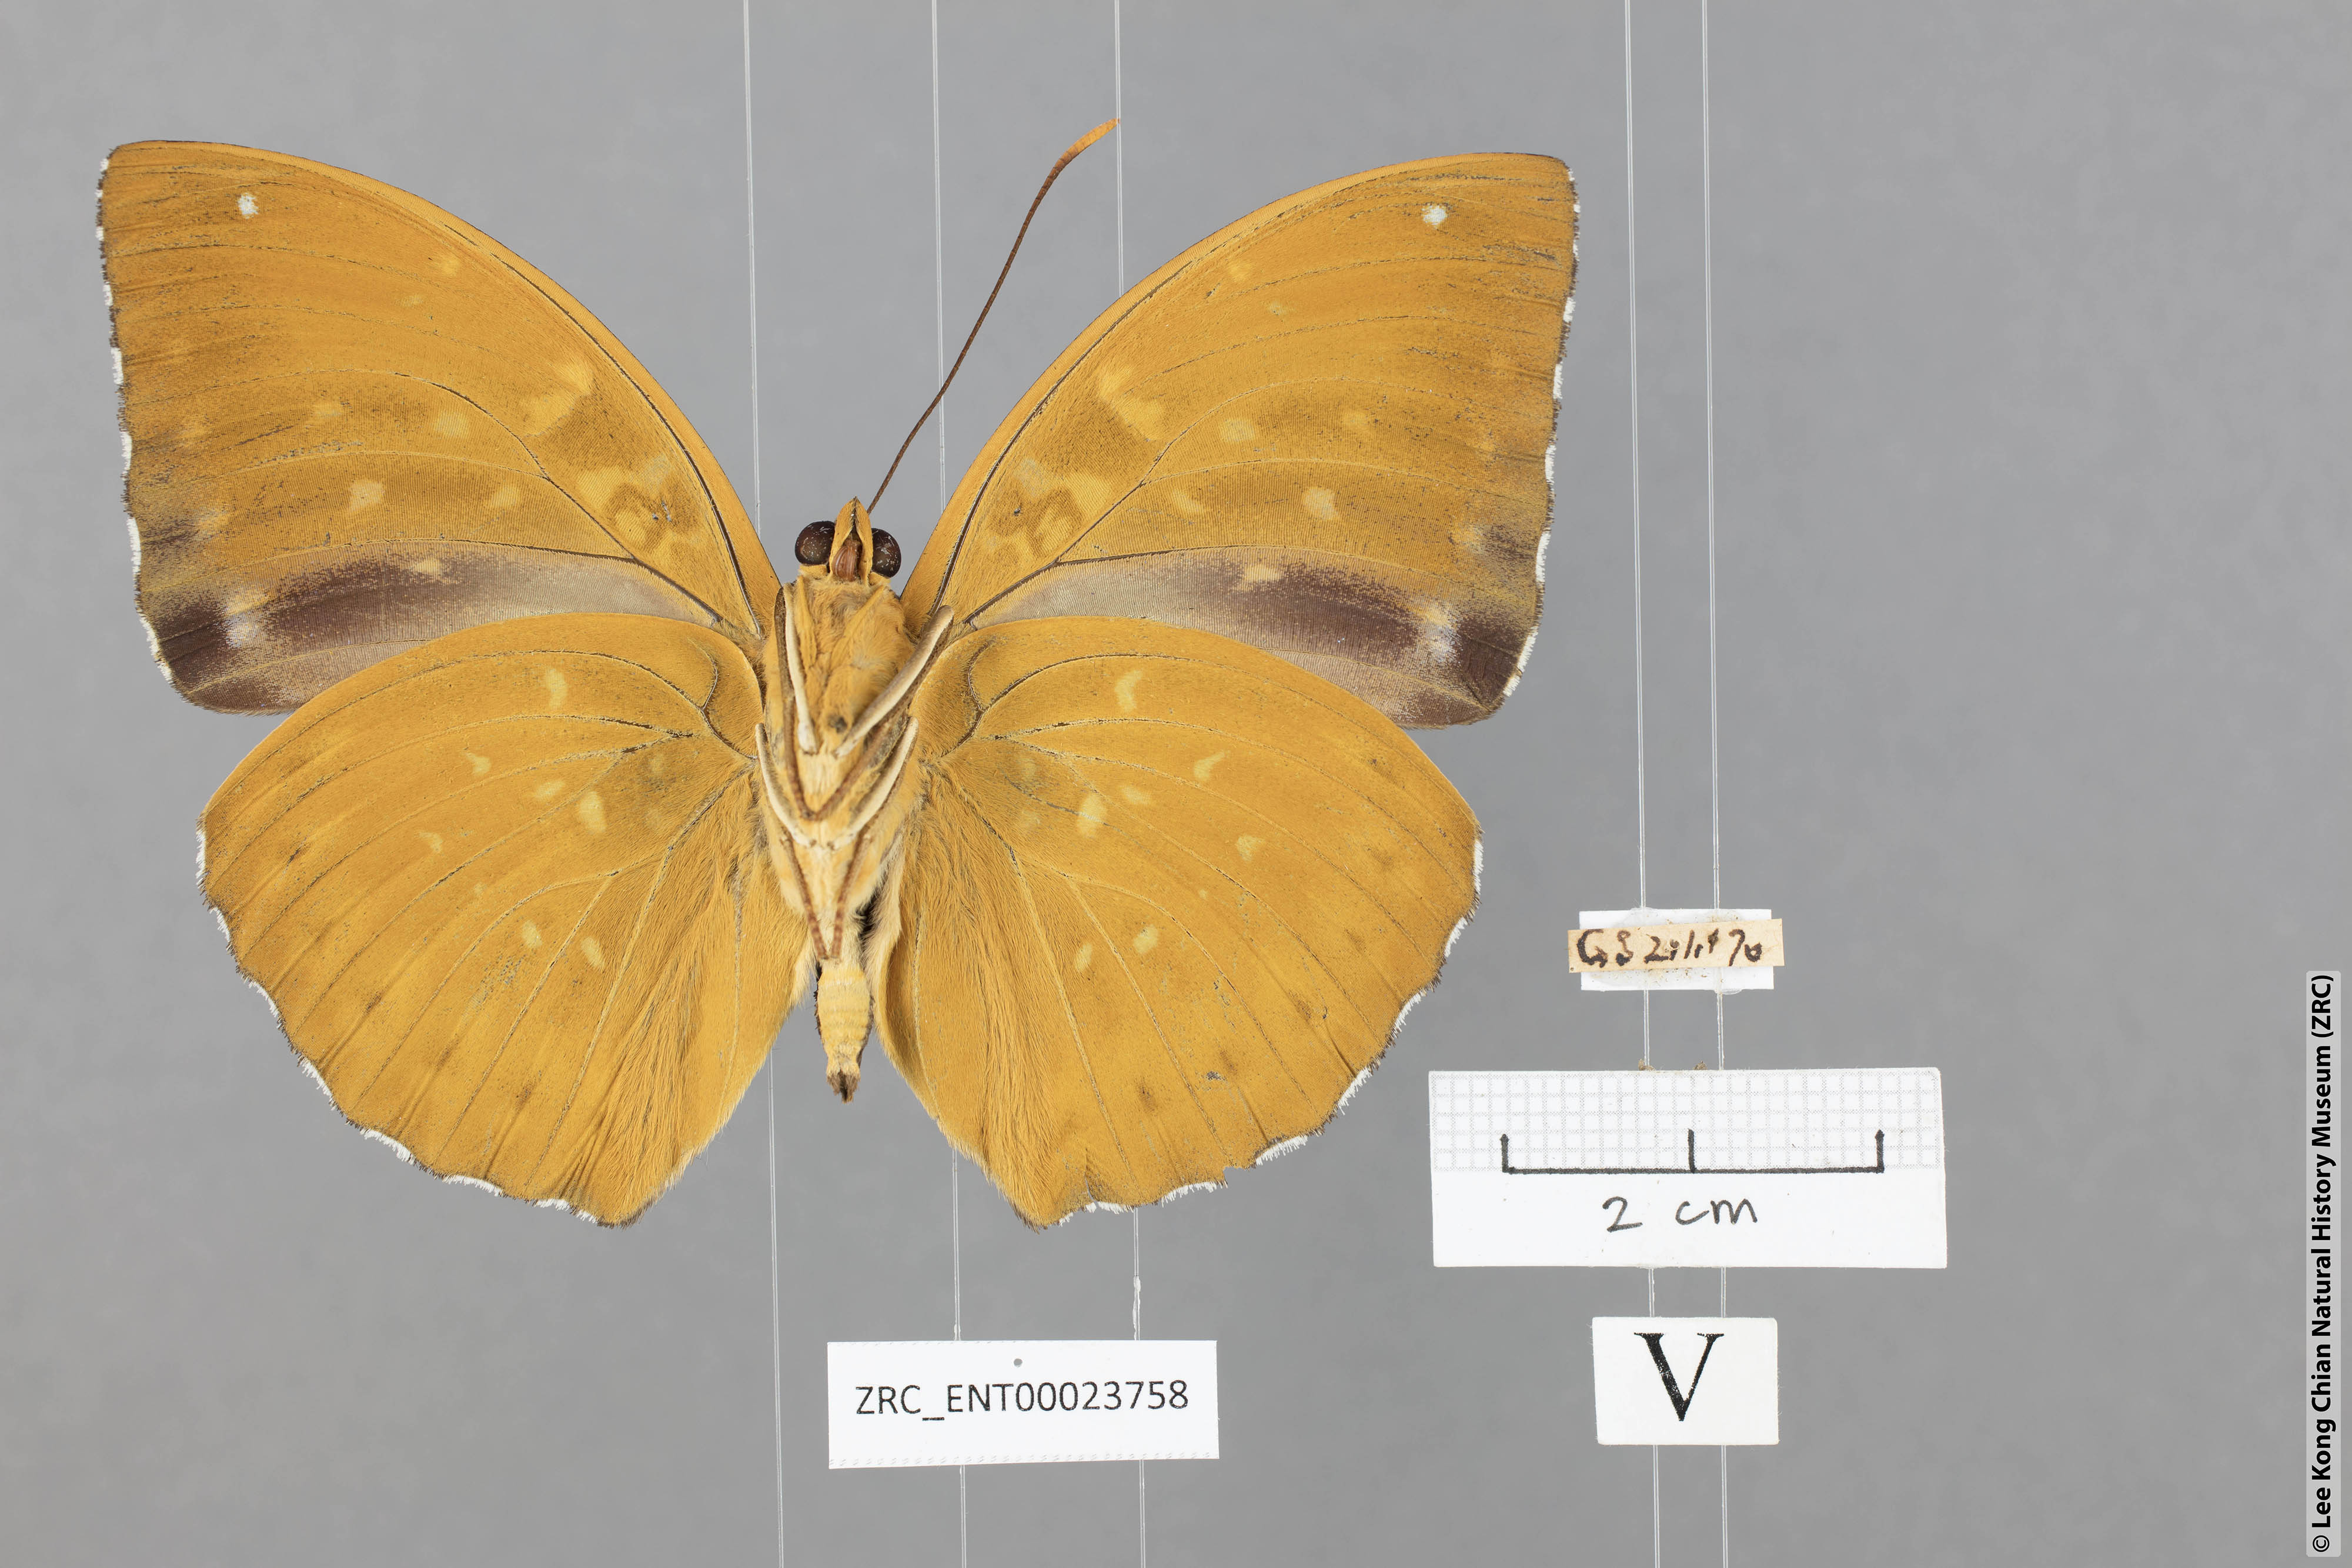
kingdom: Animalia
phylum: Arthropoda
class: Insecta
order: Lepidoptera
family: Nymphalidae
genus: Lexias
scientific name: Lexias pardalis
